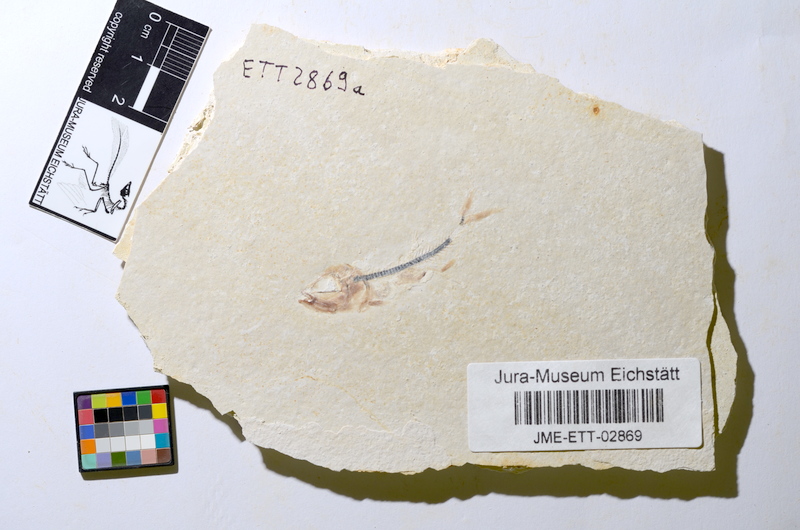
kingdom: Animalia
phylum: Chordata
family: Ascalaboidae
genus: Ebertichthys
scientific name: Ebertichthys ettlingensis
